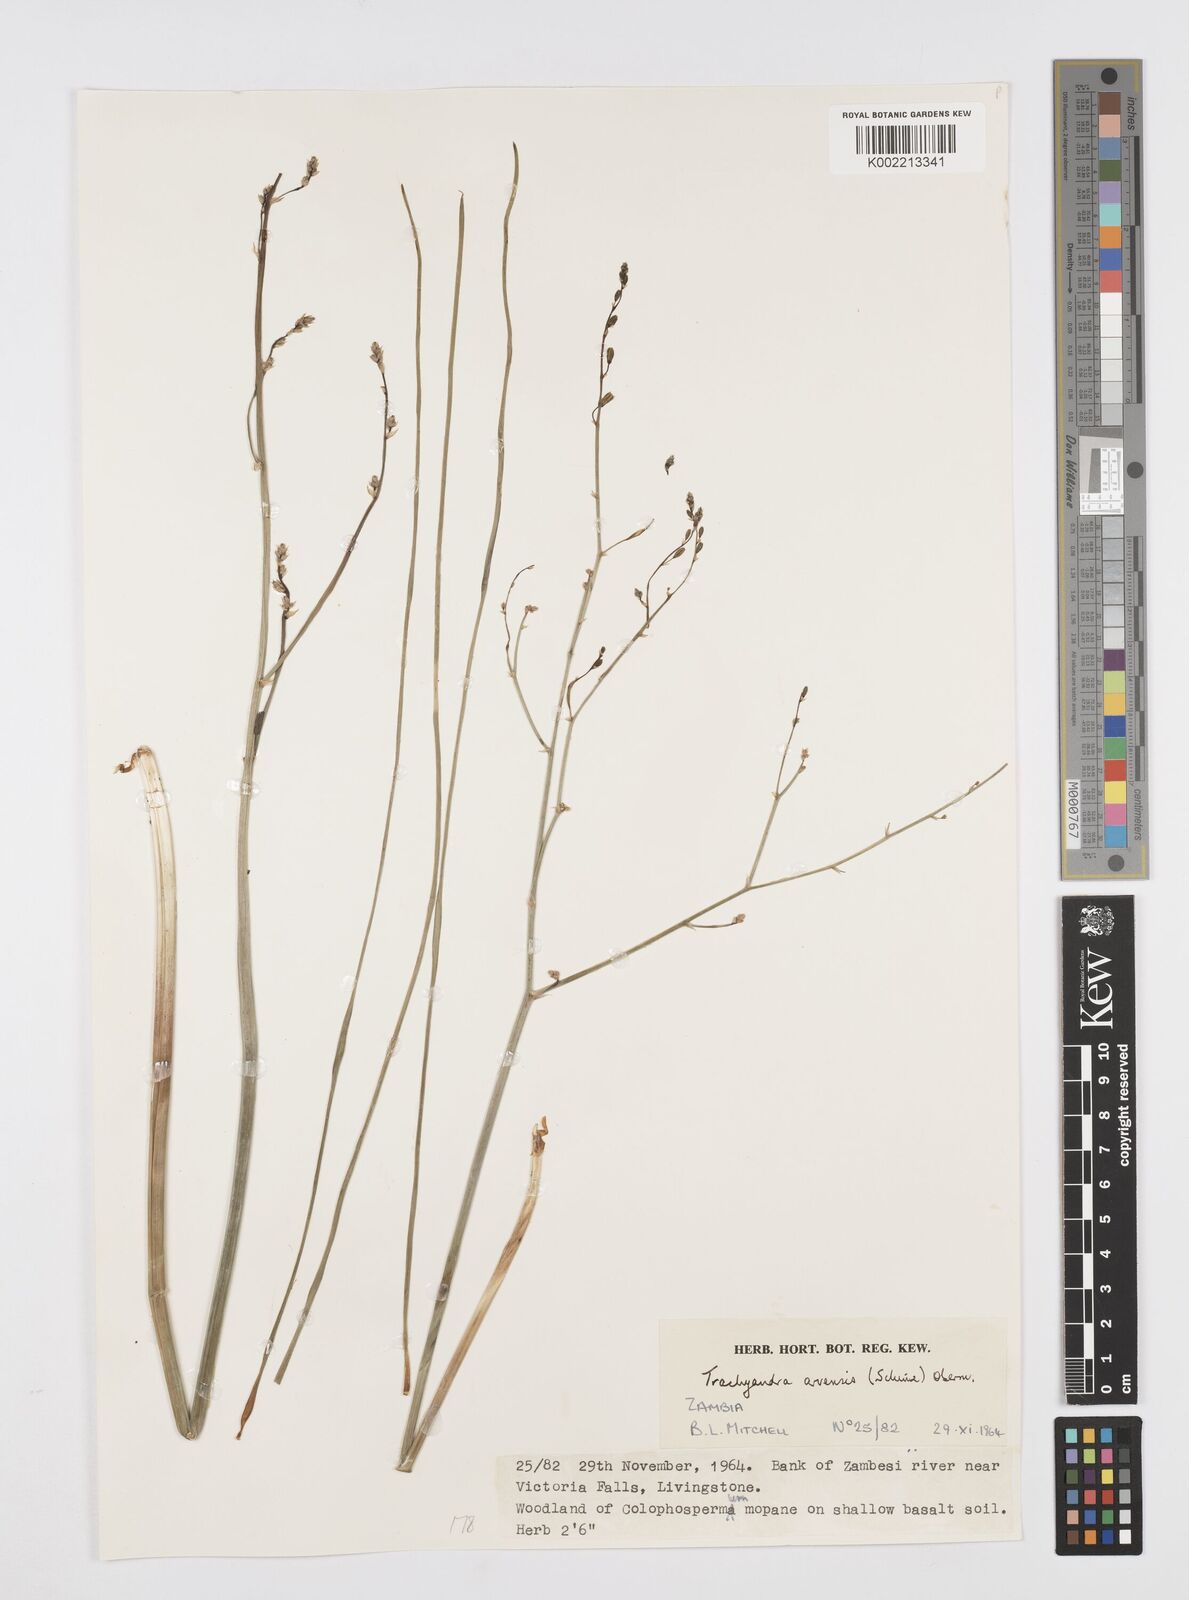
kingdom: Plantae
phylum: Tracheophyta
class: Liliopsida
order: Asparagales
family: Asphodelaceae
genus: Trachyandra
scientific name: Trachyandra arvensis
